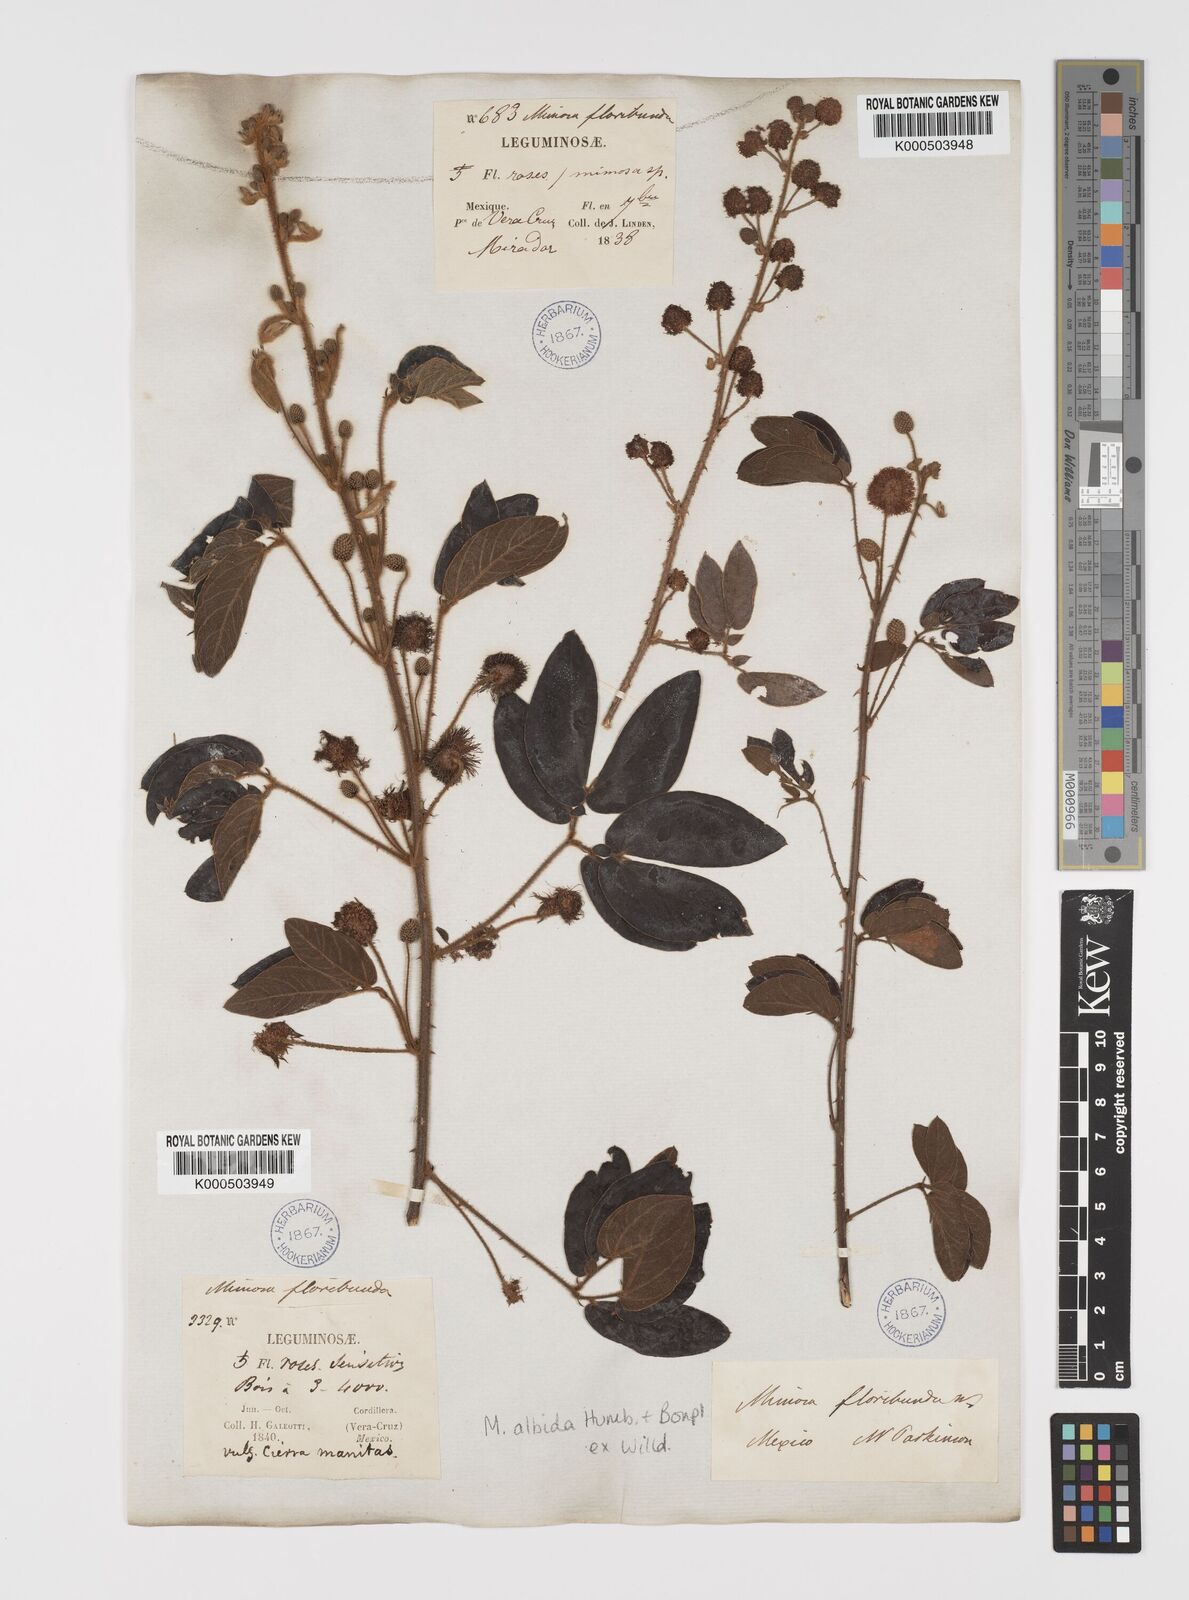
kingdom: Plantae
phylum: Tracheophyta
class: Magnoliopsida
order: Fabales
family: Fabaceae
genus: Mimosa
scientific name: Mimosa albida
